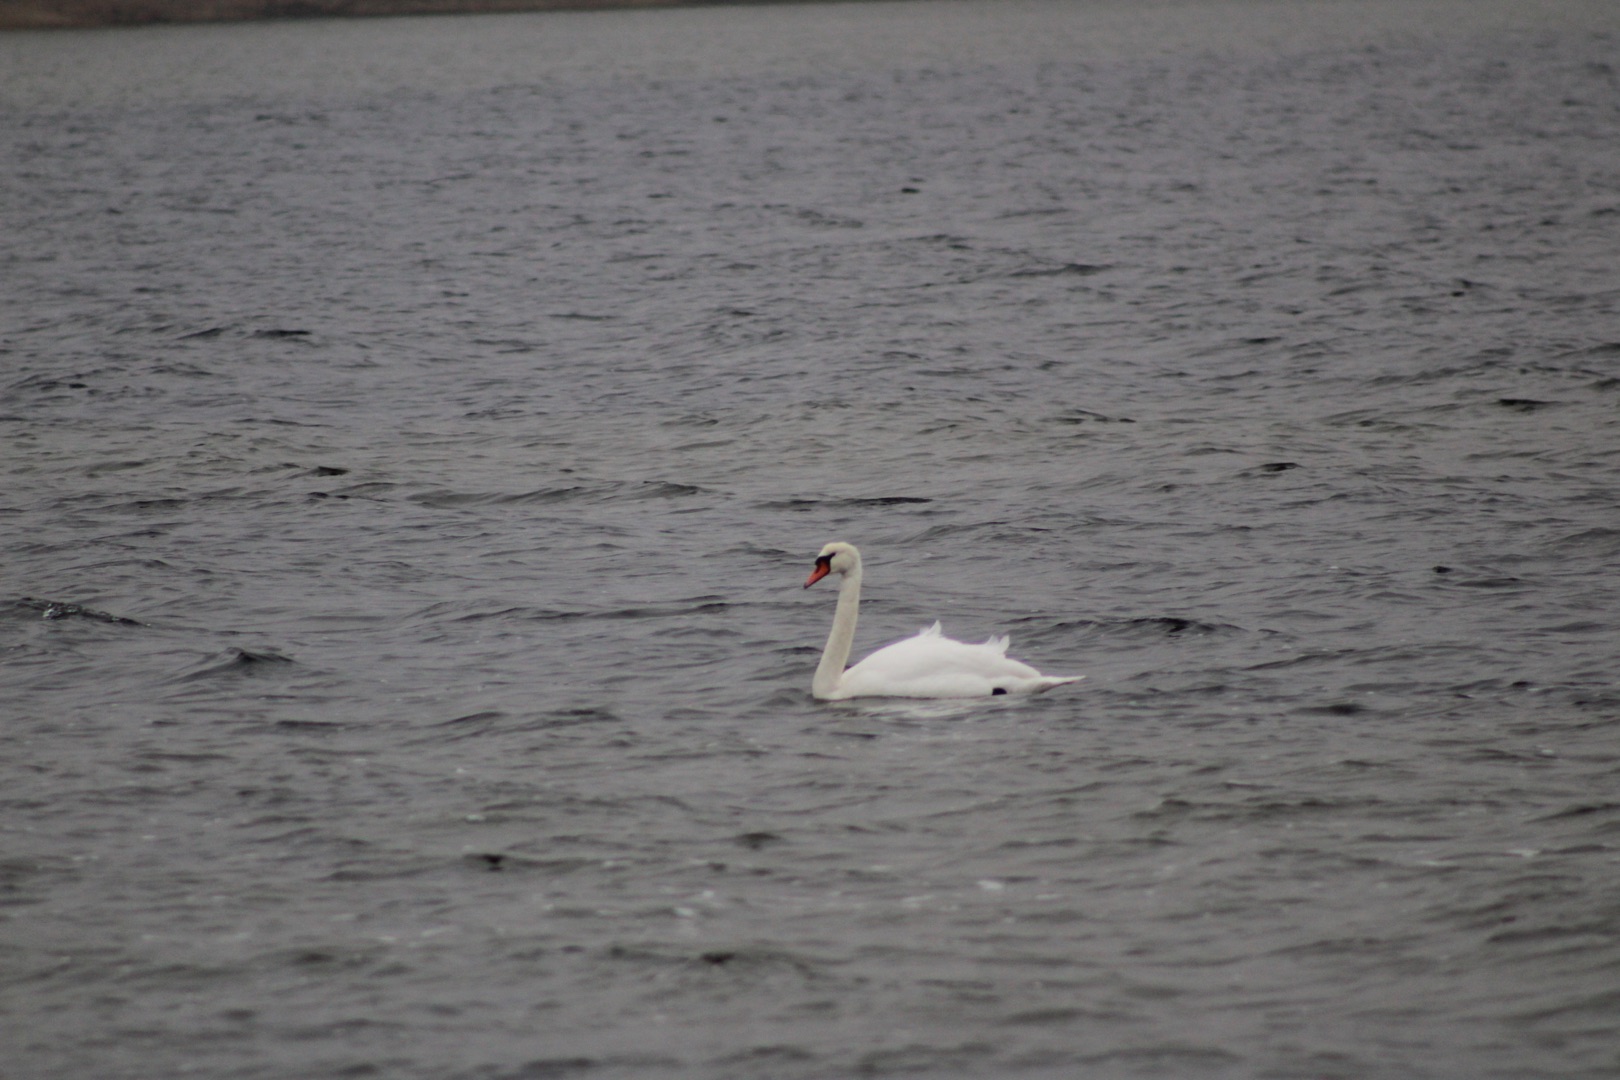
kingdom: Animalia
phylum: Chordata
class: Aves
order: Anseriformes
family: Anatidae
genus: Cygnus
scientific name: Cygnus olor
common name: Knopsvane
